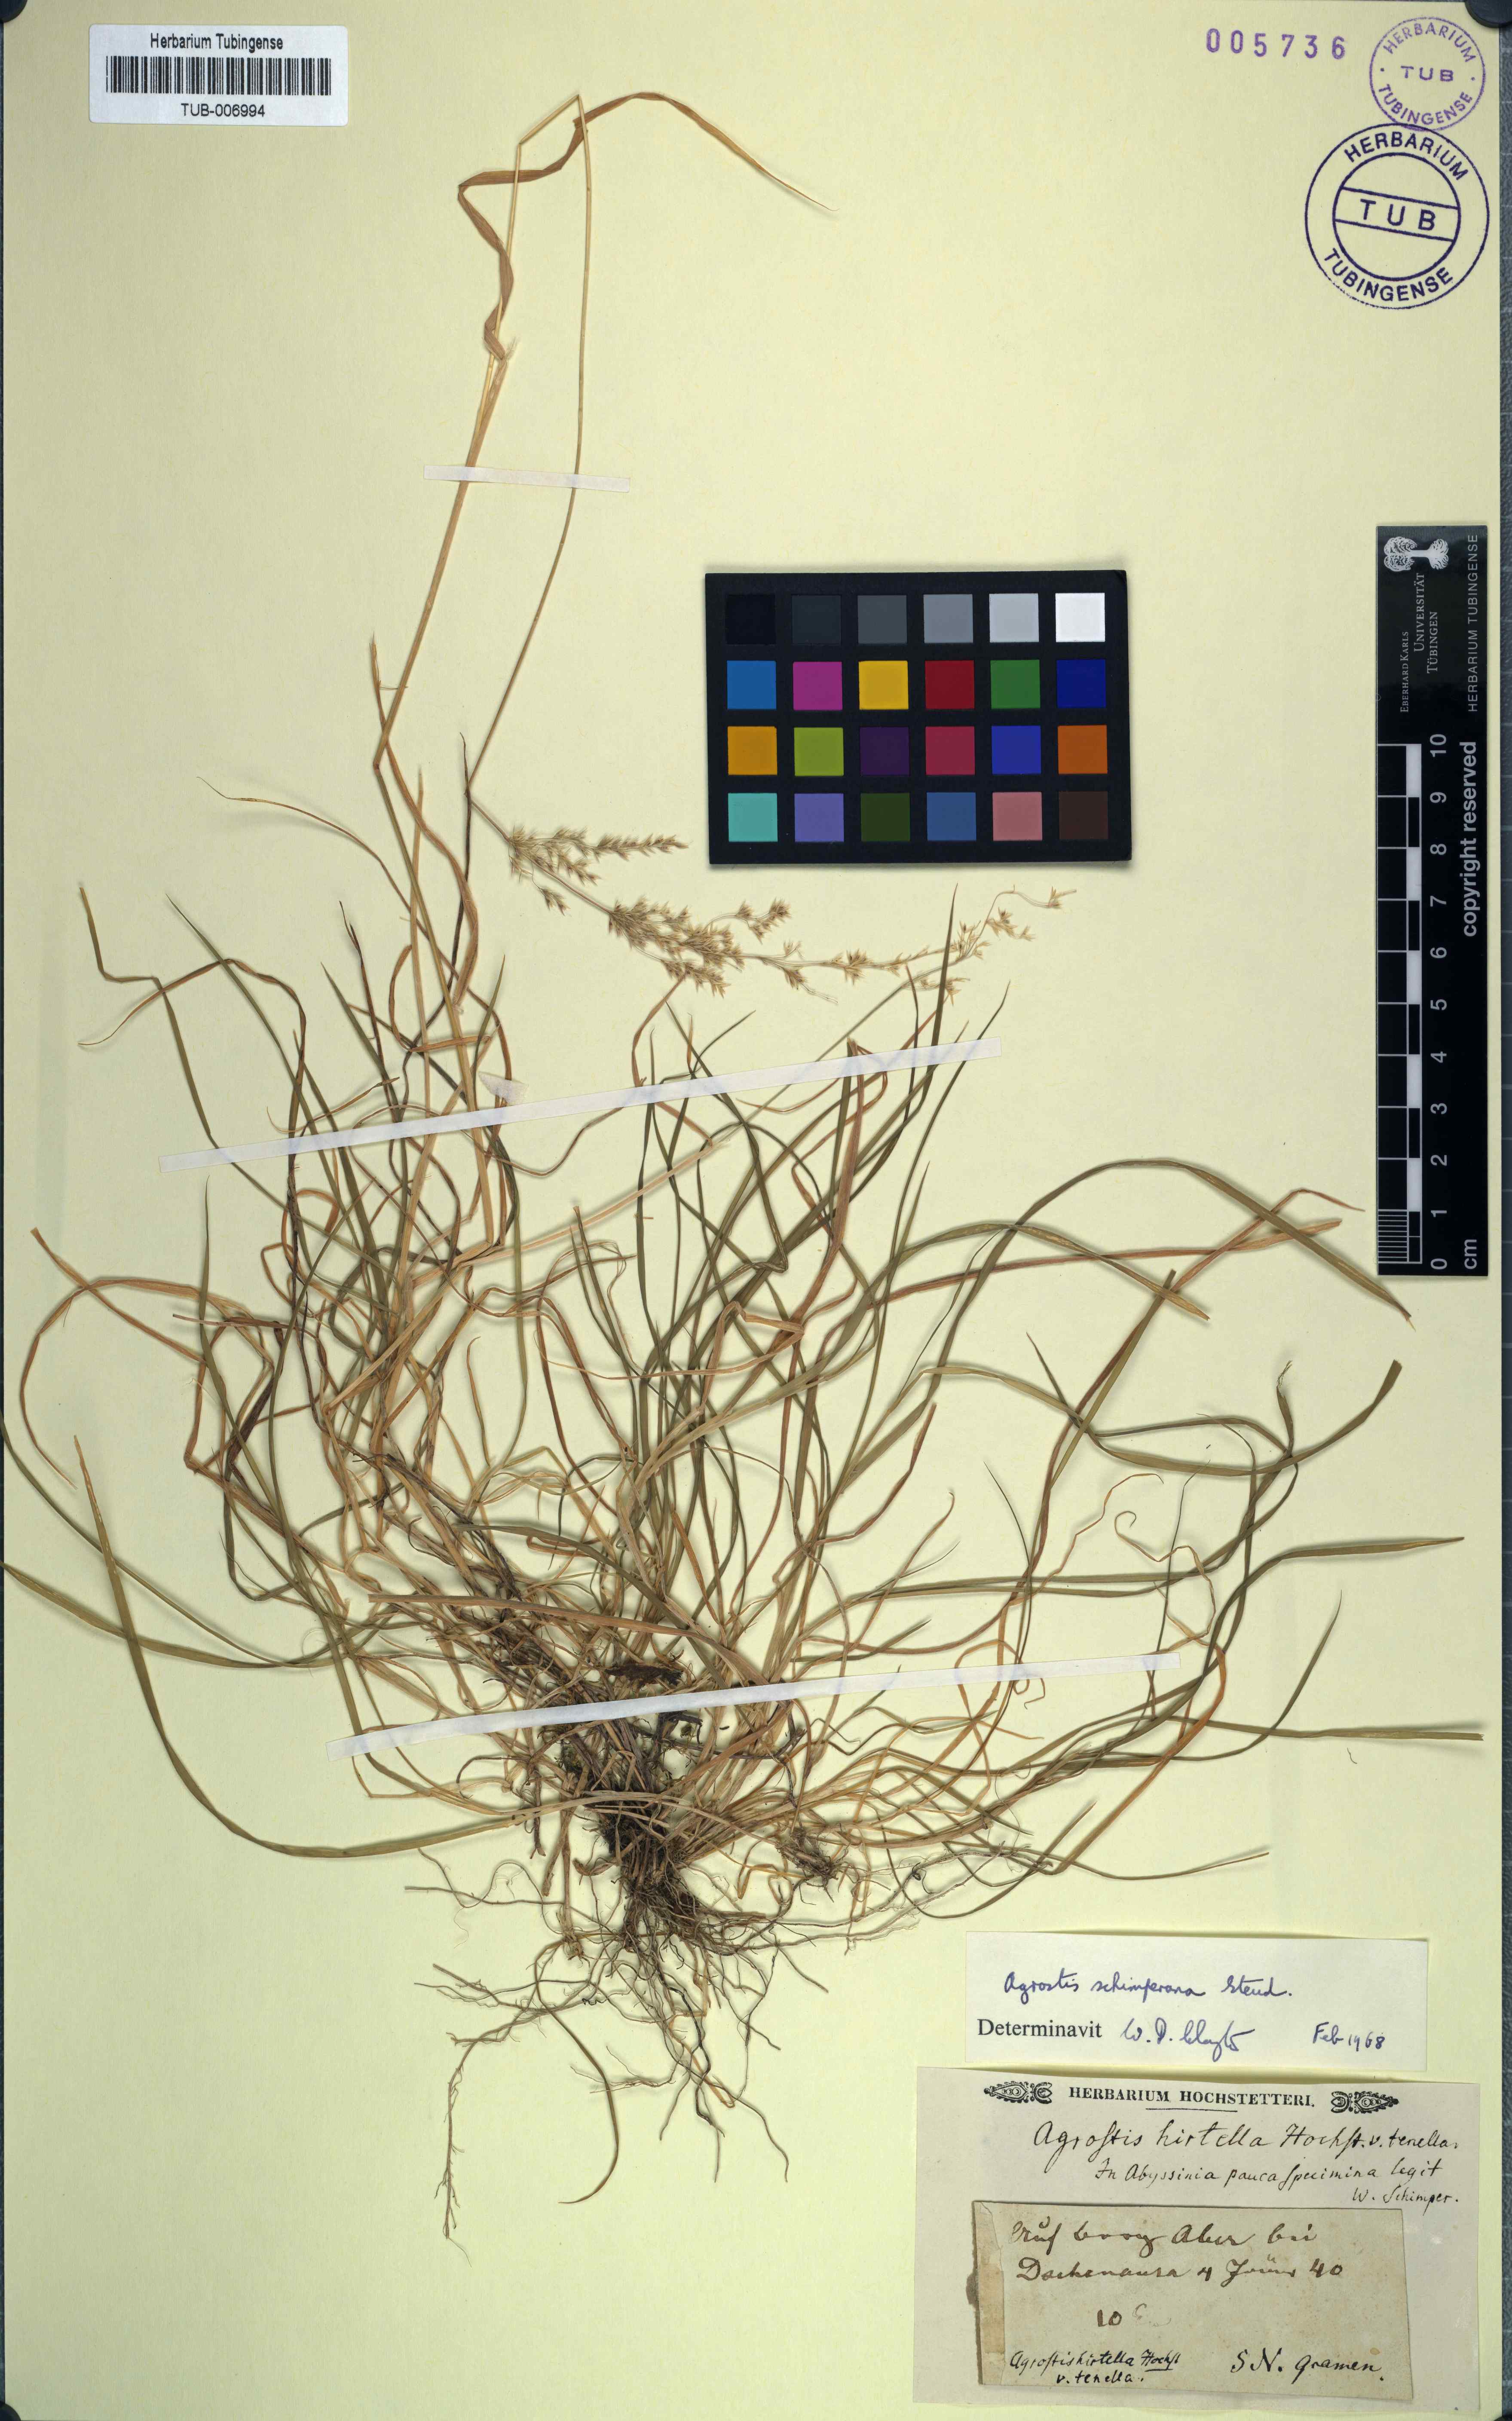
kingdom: Plantae
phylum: Tracheophyta
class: Liliopsida
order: Poales
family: Poaceae
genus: Polypogon
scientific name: Polypogon schimperianus
